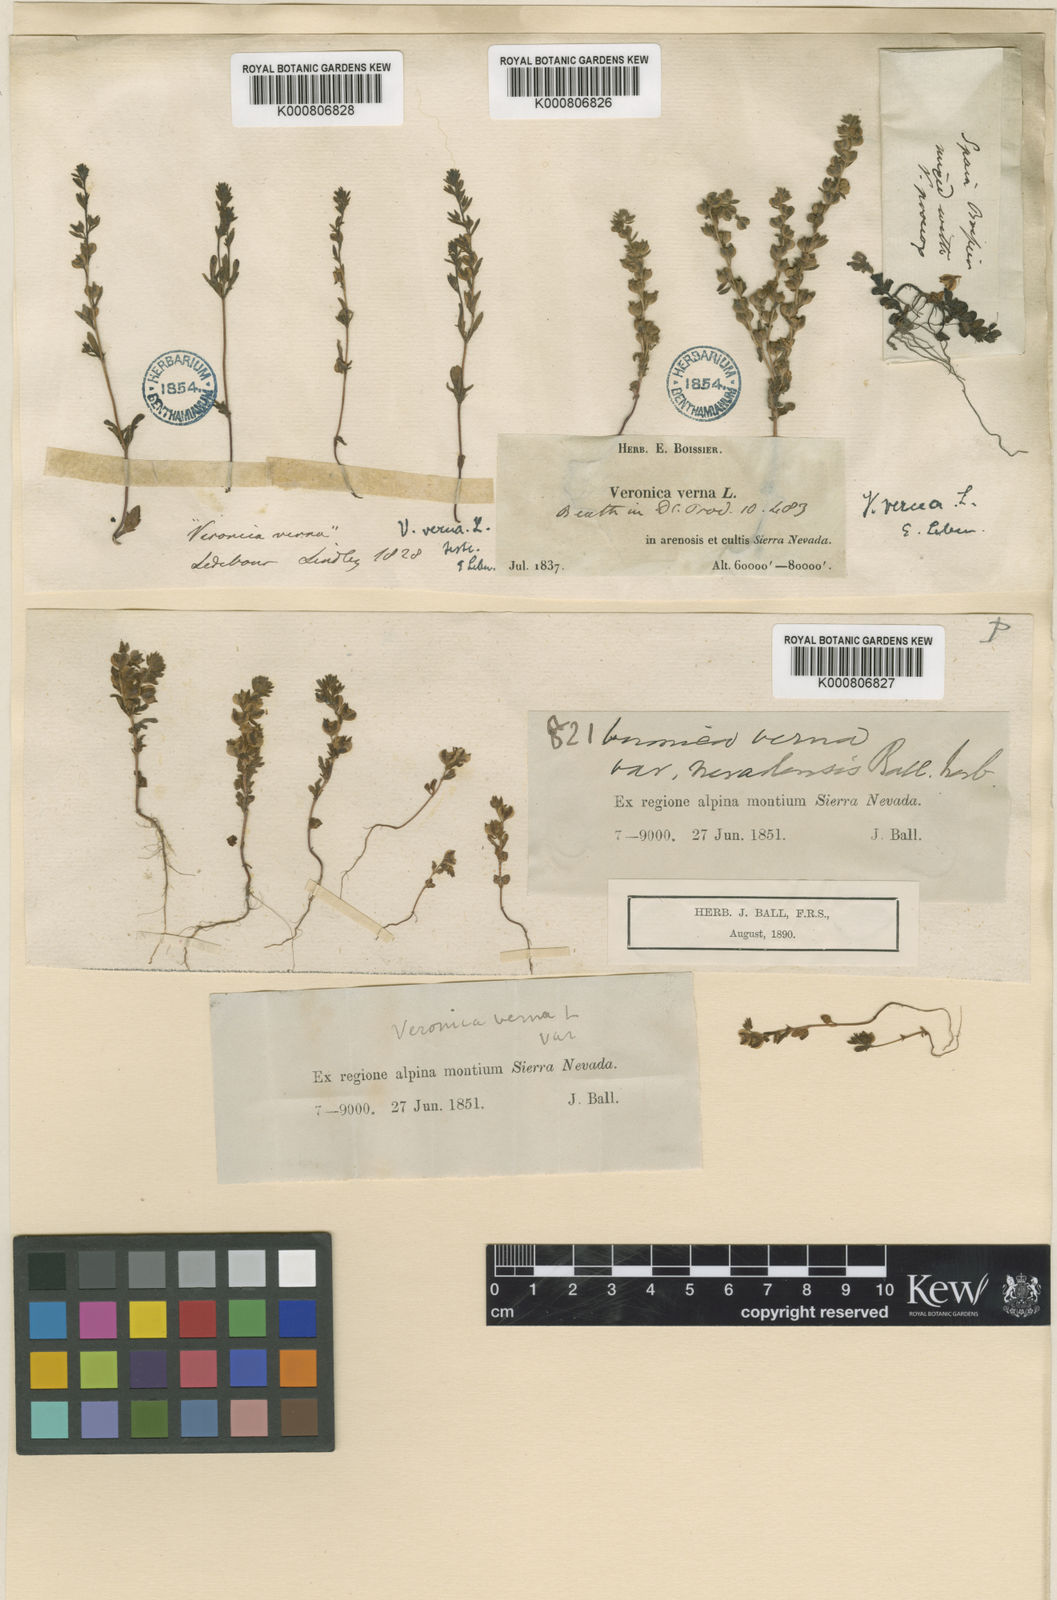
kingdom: Plantae
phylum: Tracheophyta
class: Magnoliopsida
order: Lamiales
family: Plantaginaceae
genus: Veronica
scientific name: Veronica verna
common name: Spring speedwell
